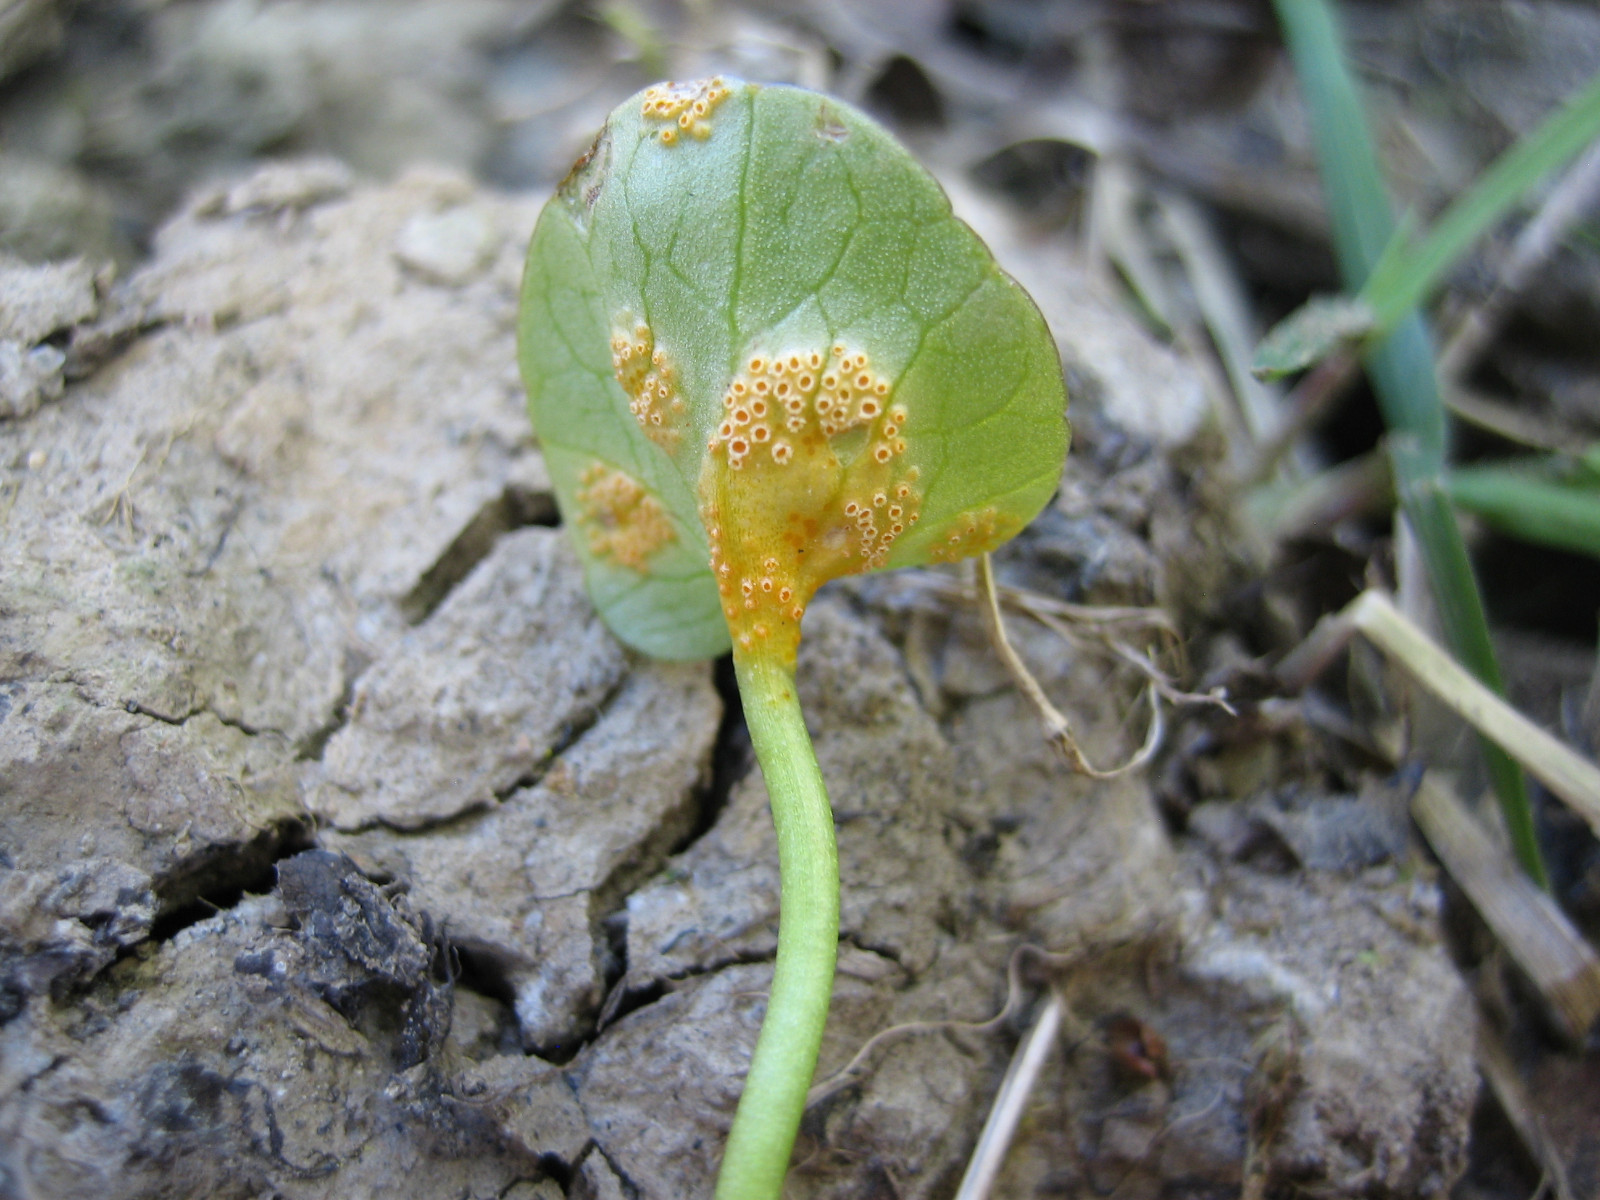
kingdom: Fungi
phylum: Basidiomycota
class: Pucciniomycetes
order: Pucciniales
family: Pucciniaceae
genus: Uromyces
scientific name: Uromyces dactylidis
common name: ranunkel-encellerust
